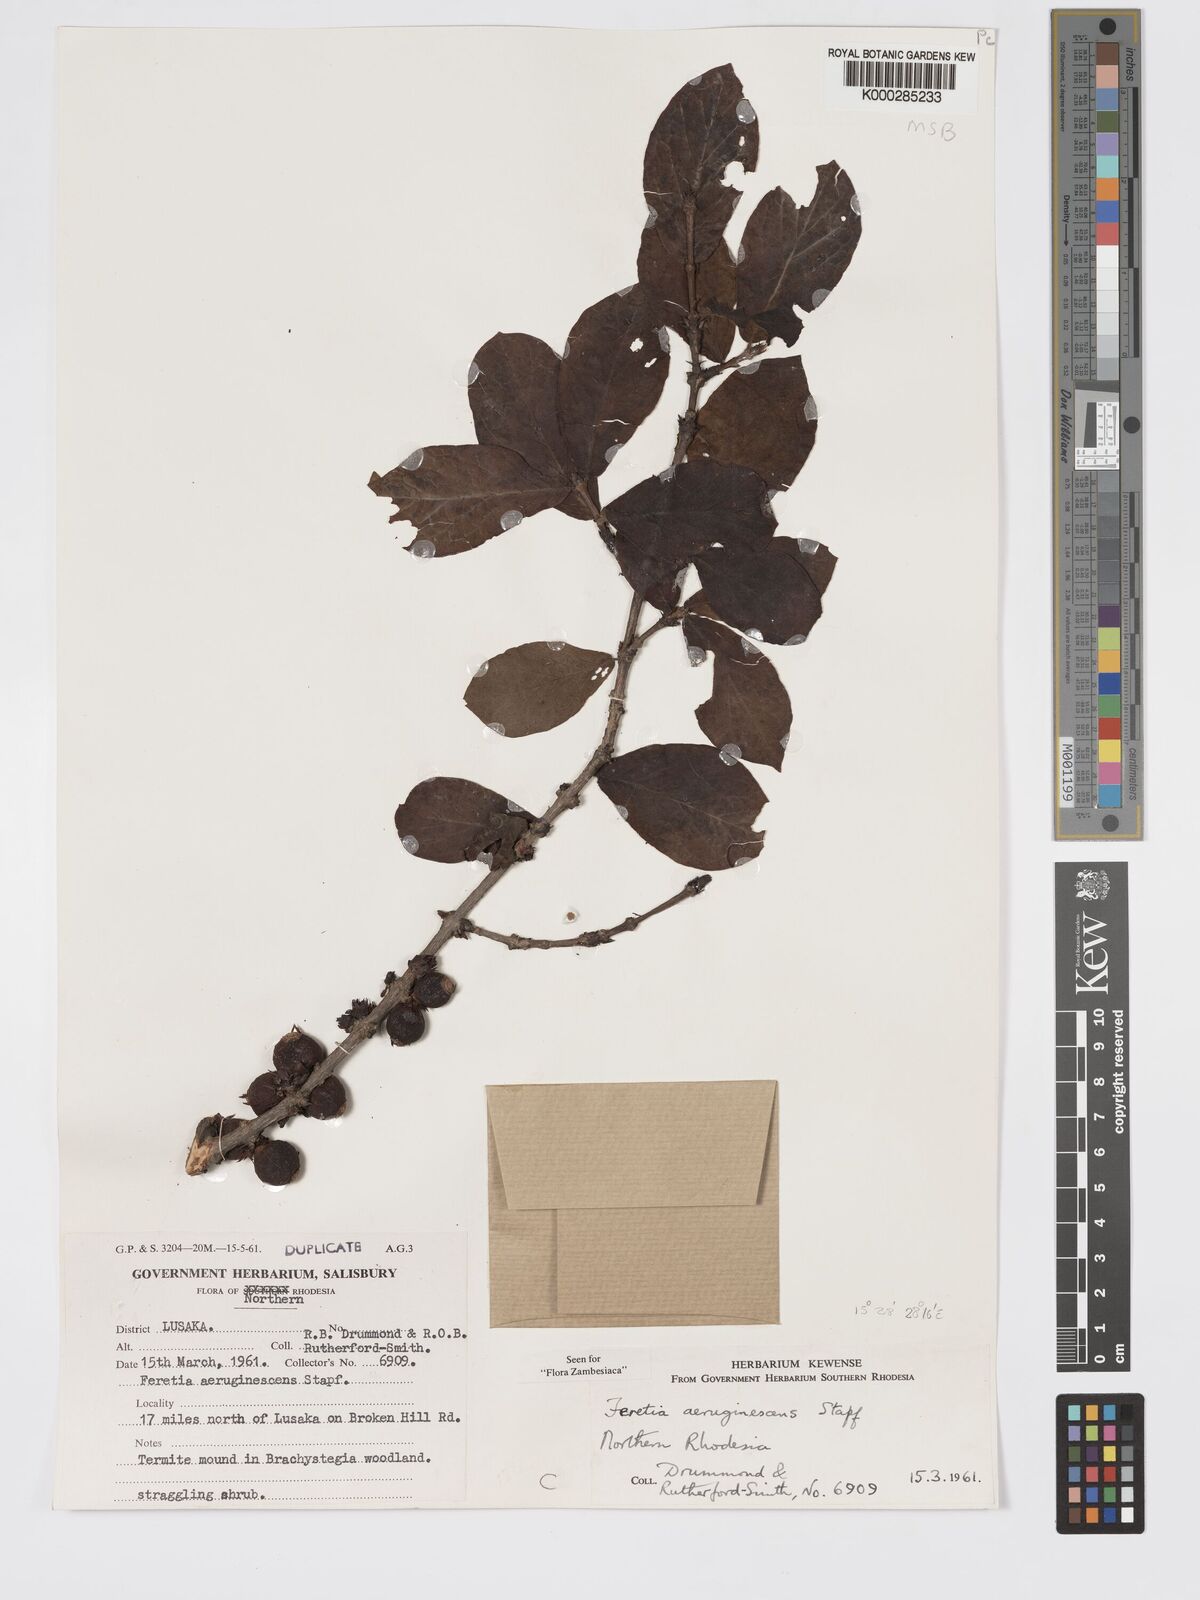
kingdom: Plantae
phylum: Tracheophyta
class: Magnoliopsida
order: Gentianales
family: Rubiaceae
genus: Feretia
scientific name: Feretia aeruginescens
